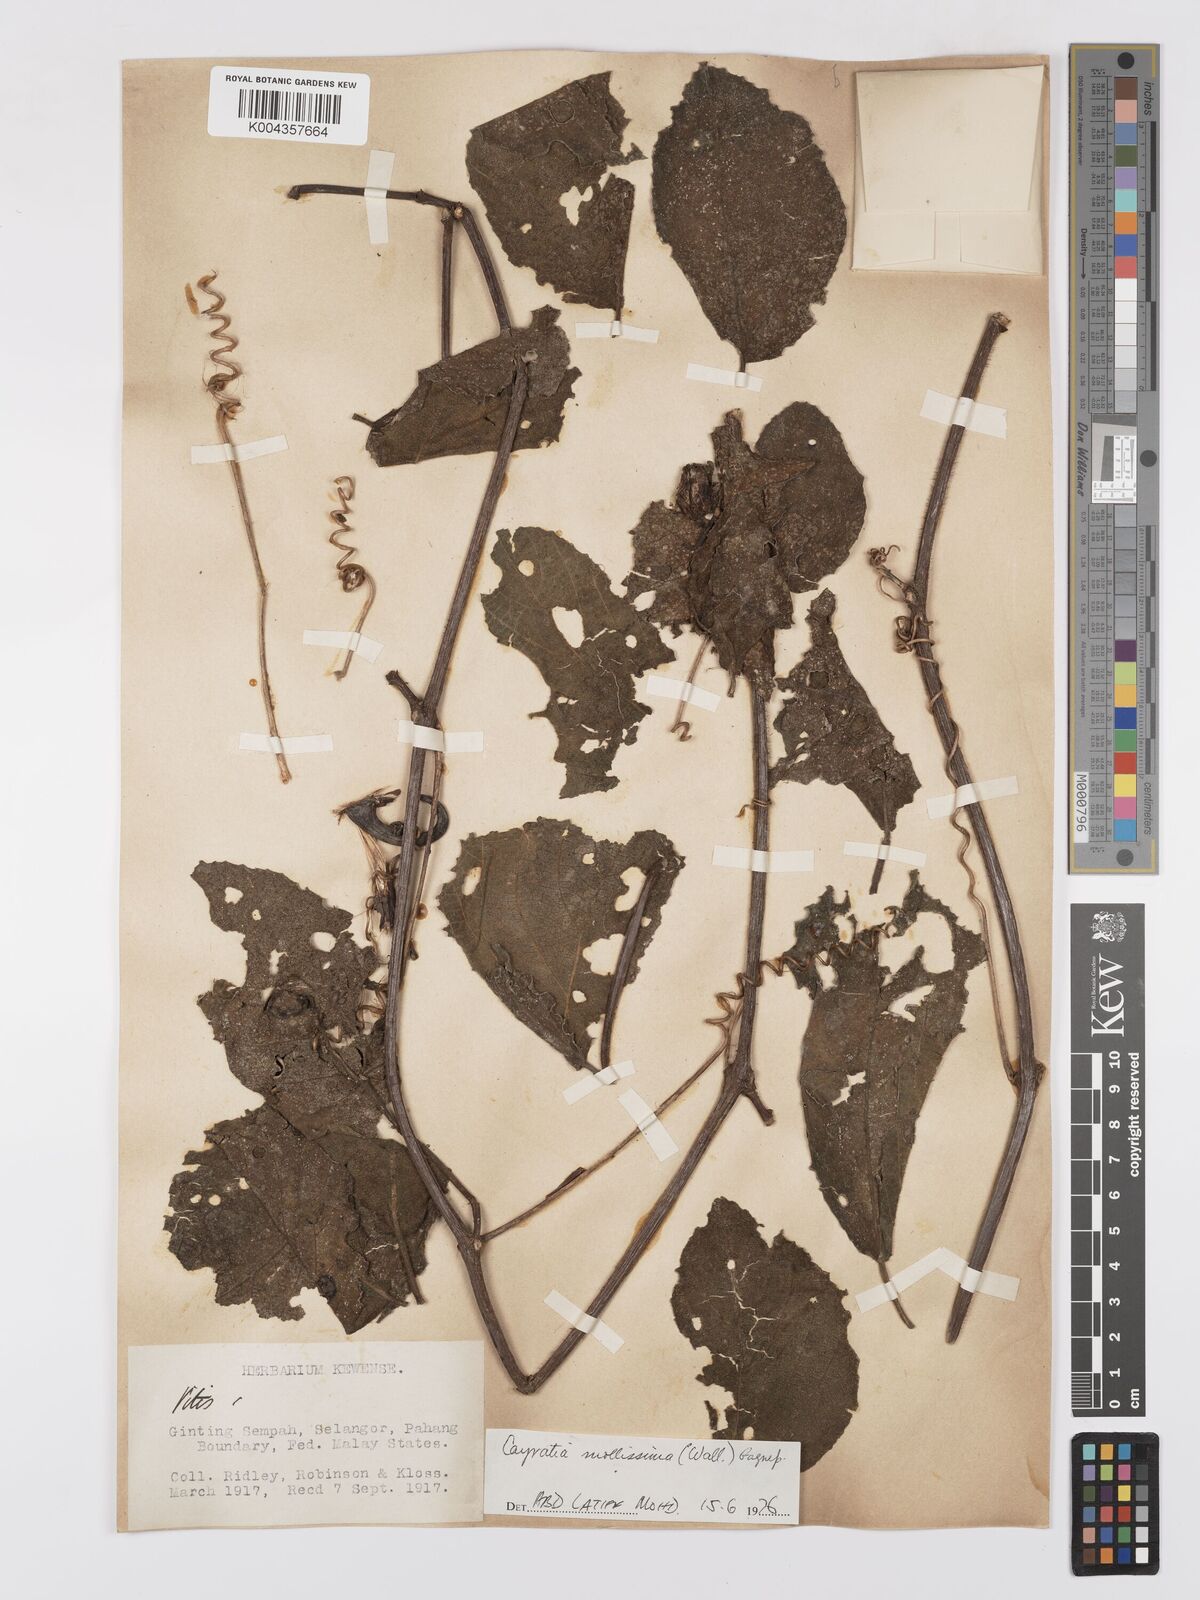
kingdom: Plantae
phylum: Tracheophyta
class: Magnoliopsida
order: Vitales
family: Vitaceae
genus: Cayratia
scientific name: Cayratia mollissima
